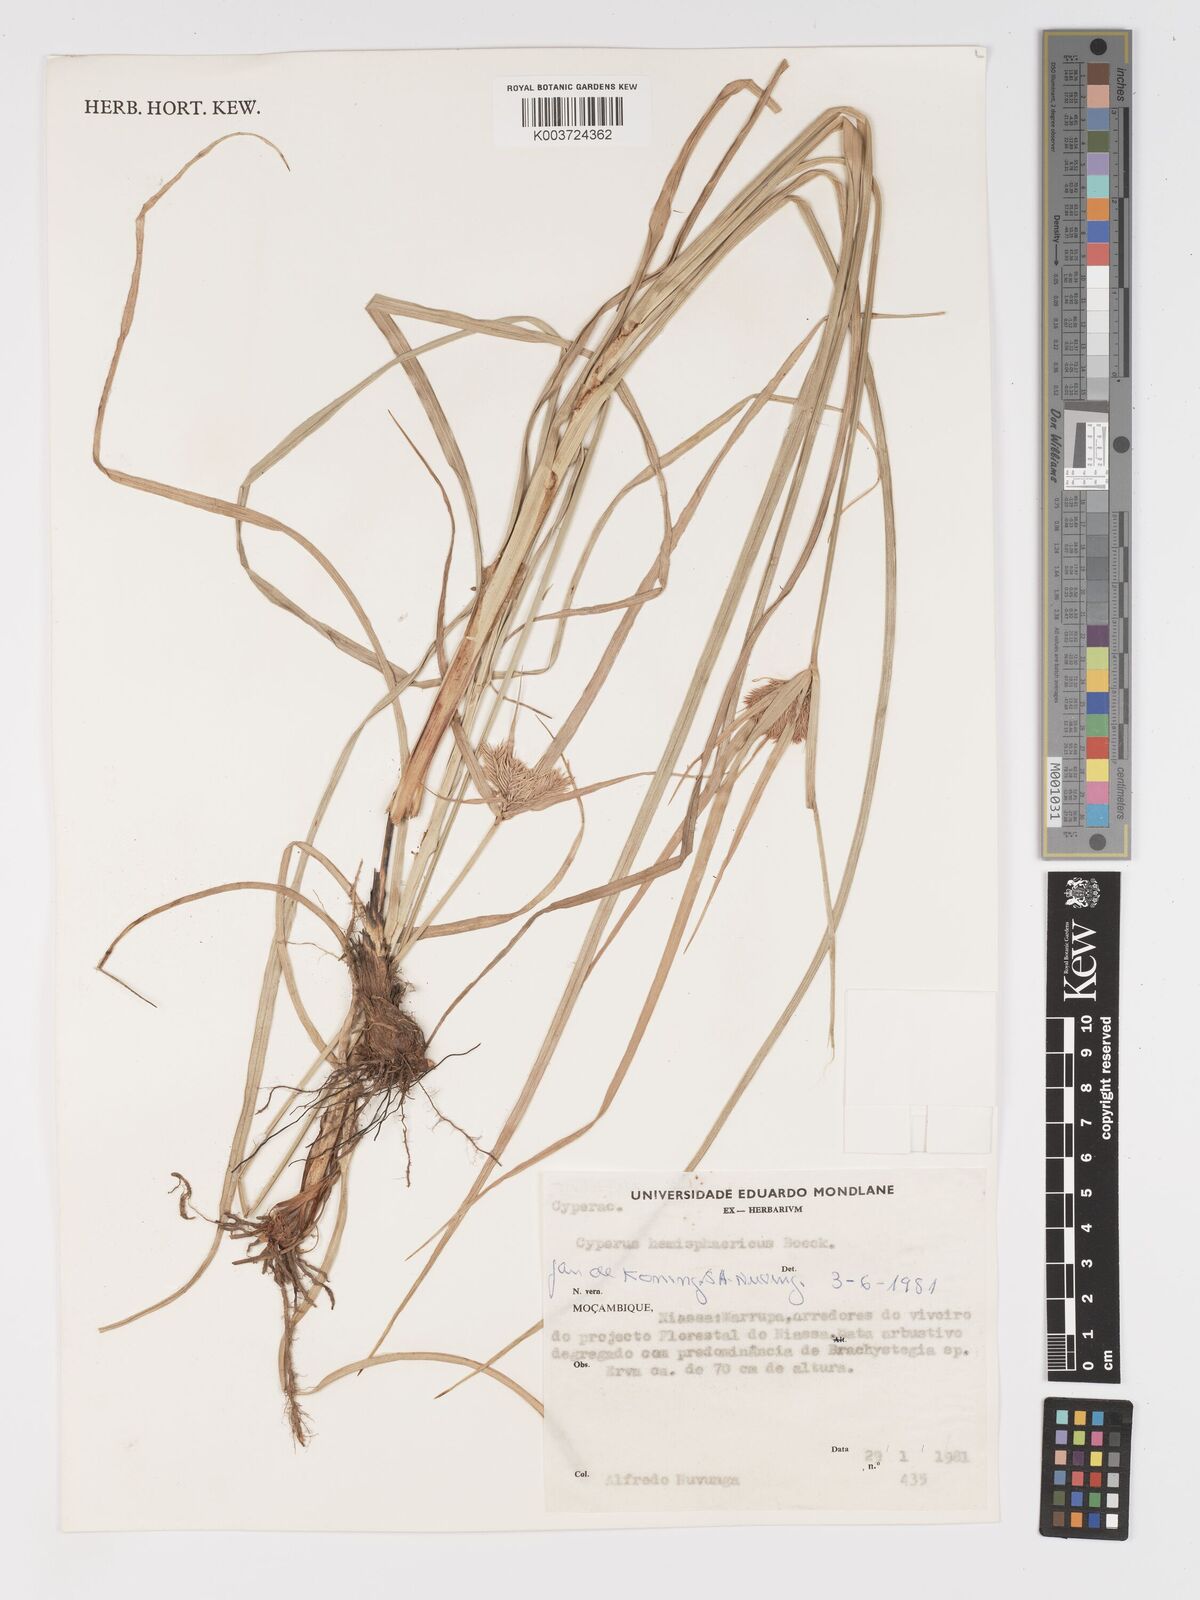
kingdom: Plantae
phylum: Tracheophyta
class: Liliopsida
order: Poales
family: Cyperaceae
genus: Cyperus
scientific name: Cyperus hemisphaericus
